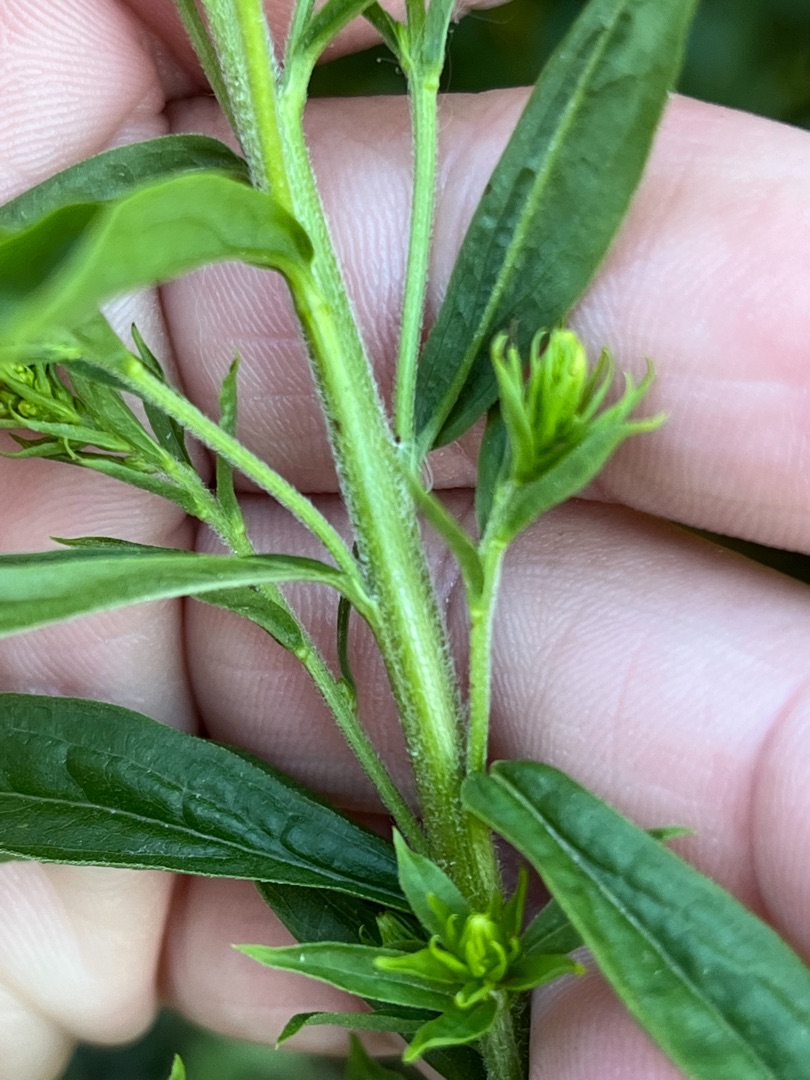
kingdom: Plantae
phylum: Tracheophyta
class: Magnoliopsida
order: Asterales
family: Asteraceae
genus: Solidago
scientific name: Solidago canadensis
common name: Kanadisk gyldenris
